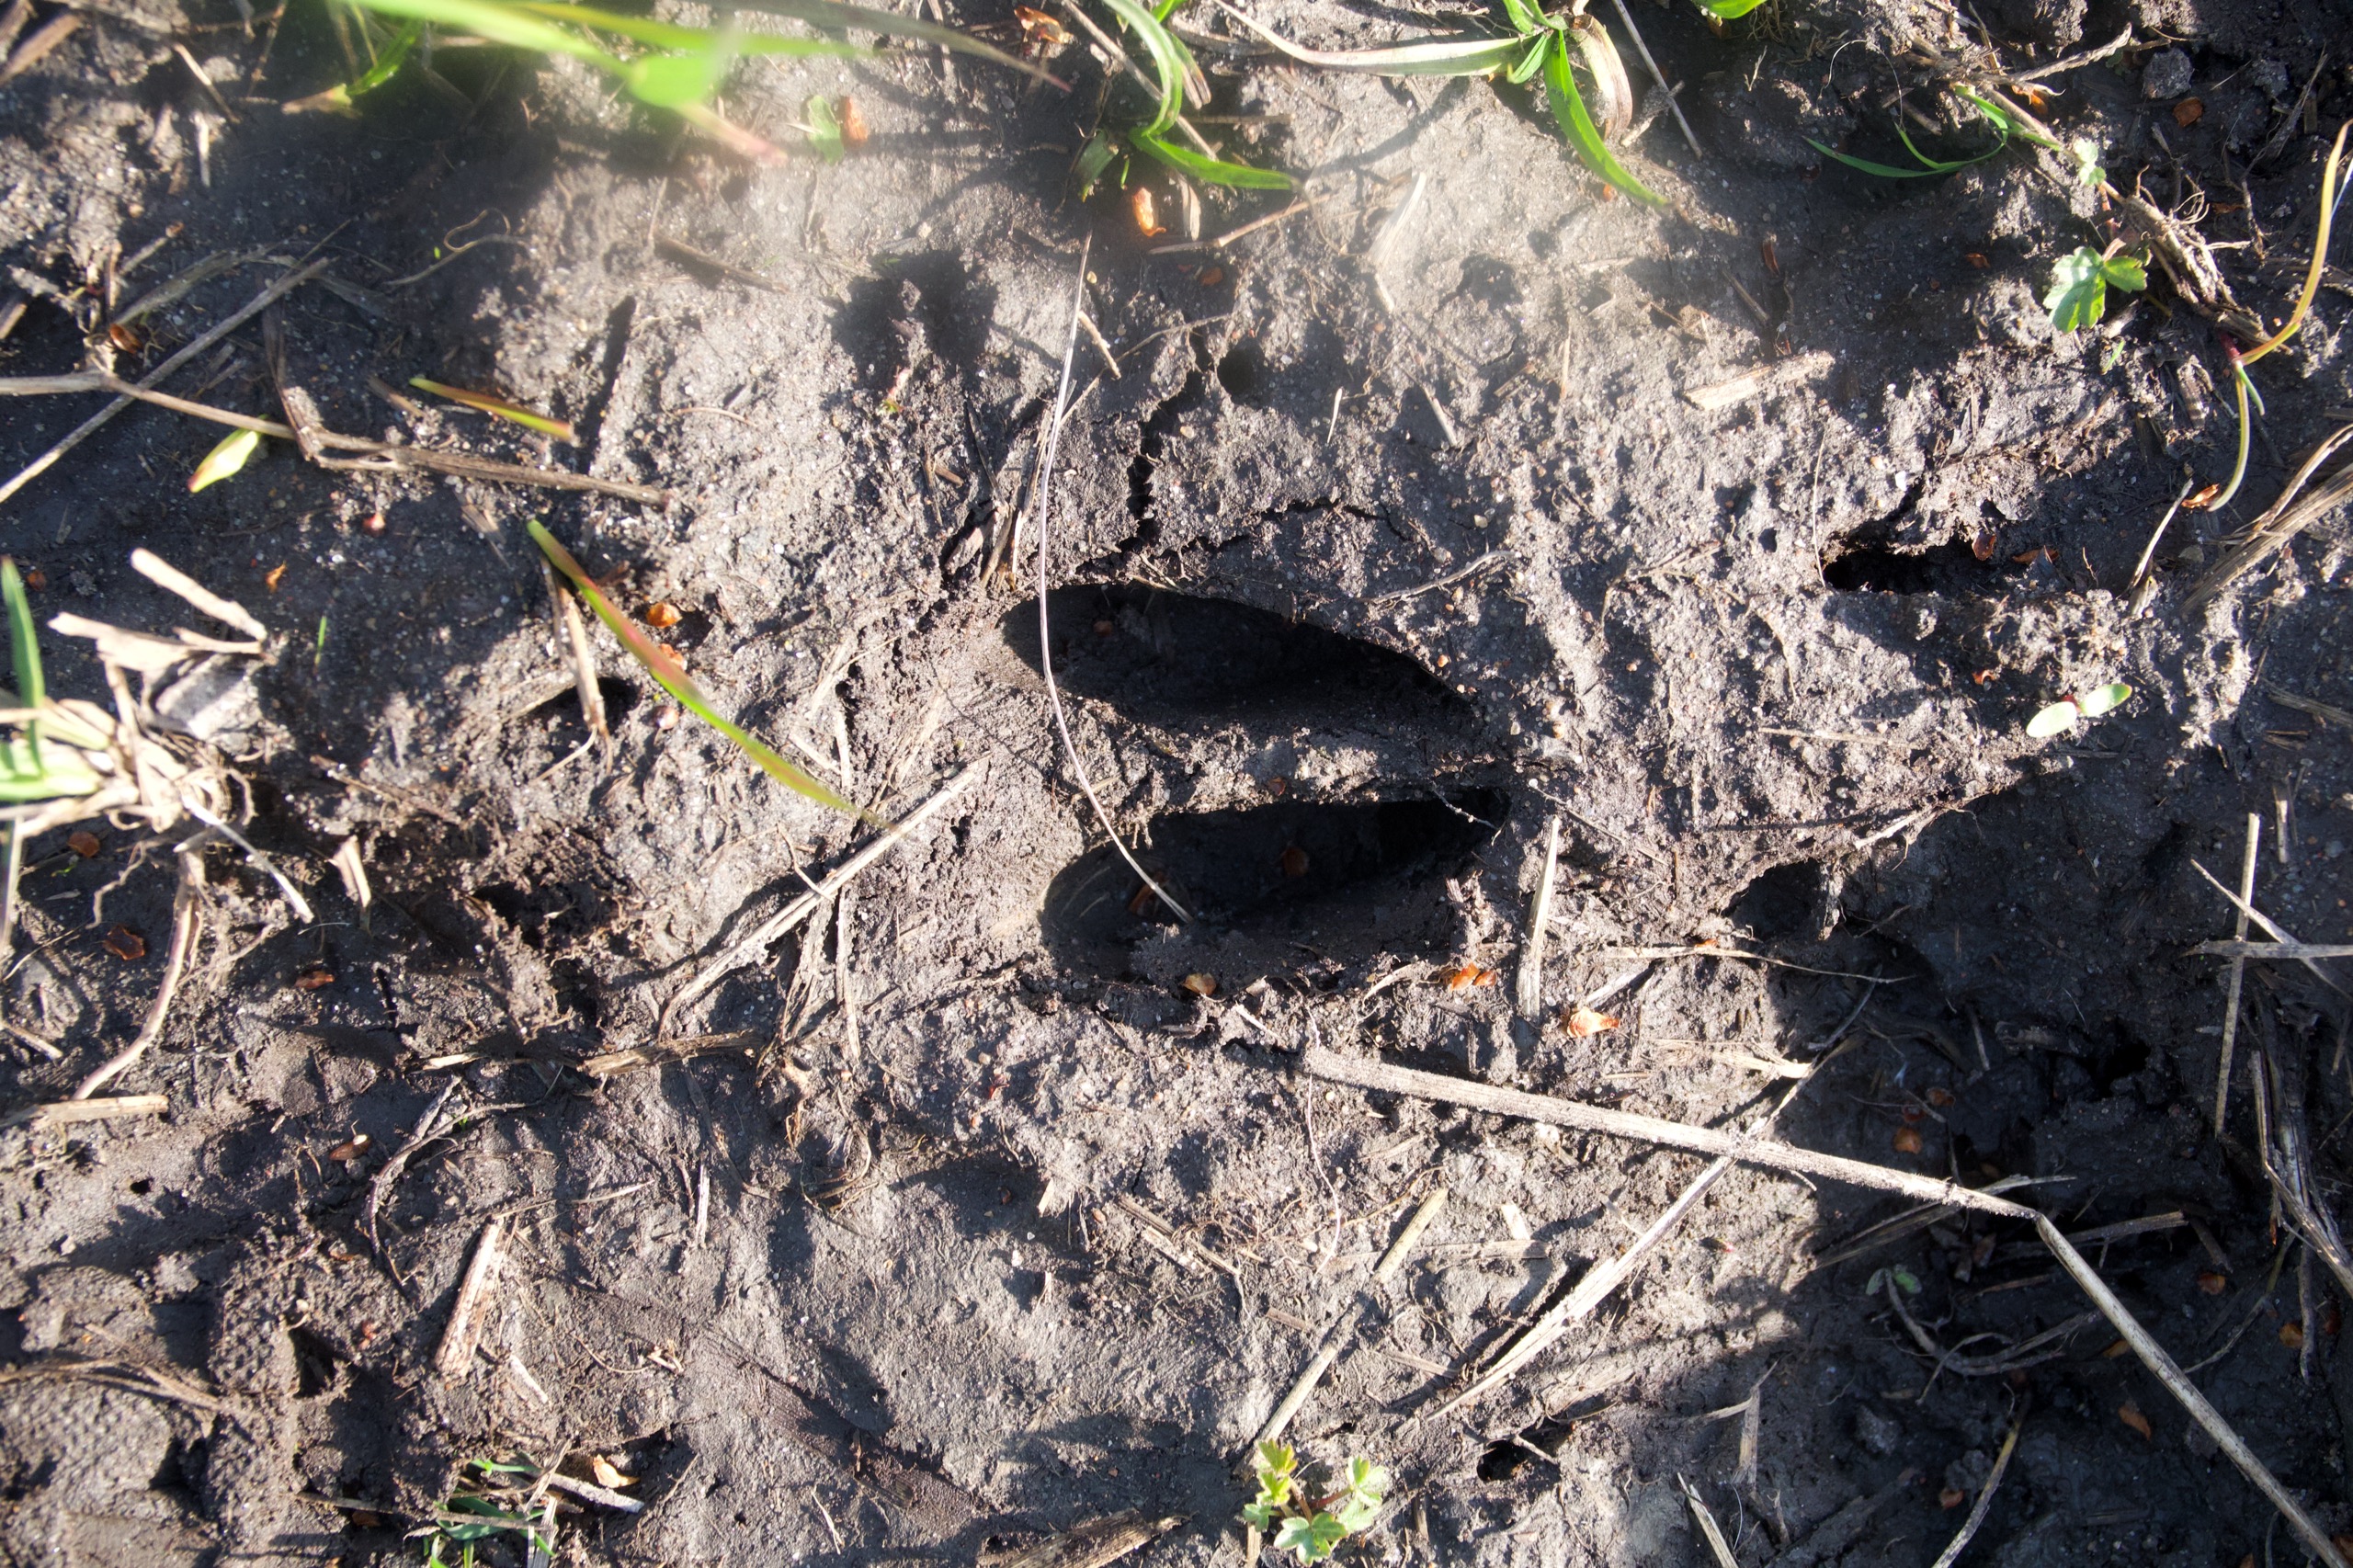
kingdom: Animalia
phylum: Chordata
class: Mammalia
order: Artiodactyla
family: Cervidae
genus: Capreolus
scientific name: Capreolus capreolus
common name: Rådyr
